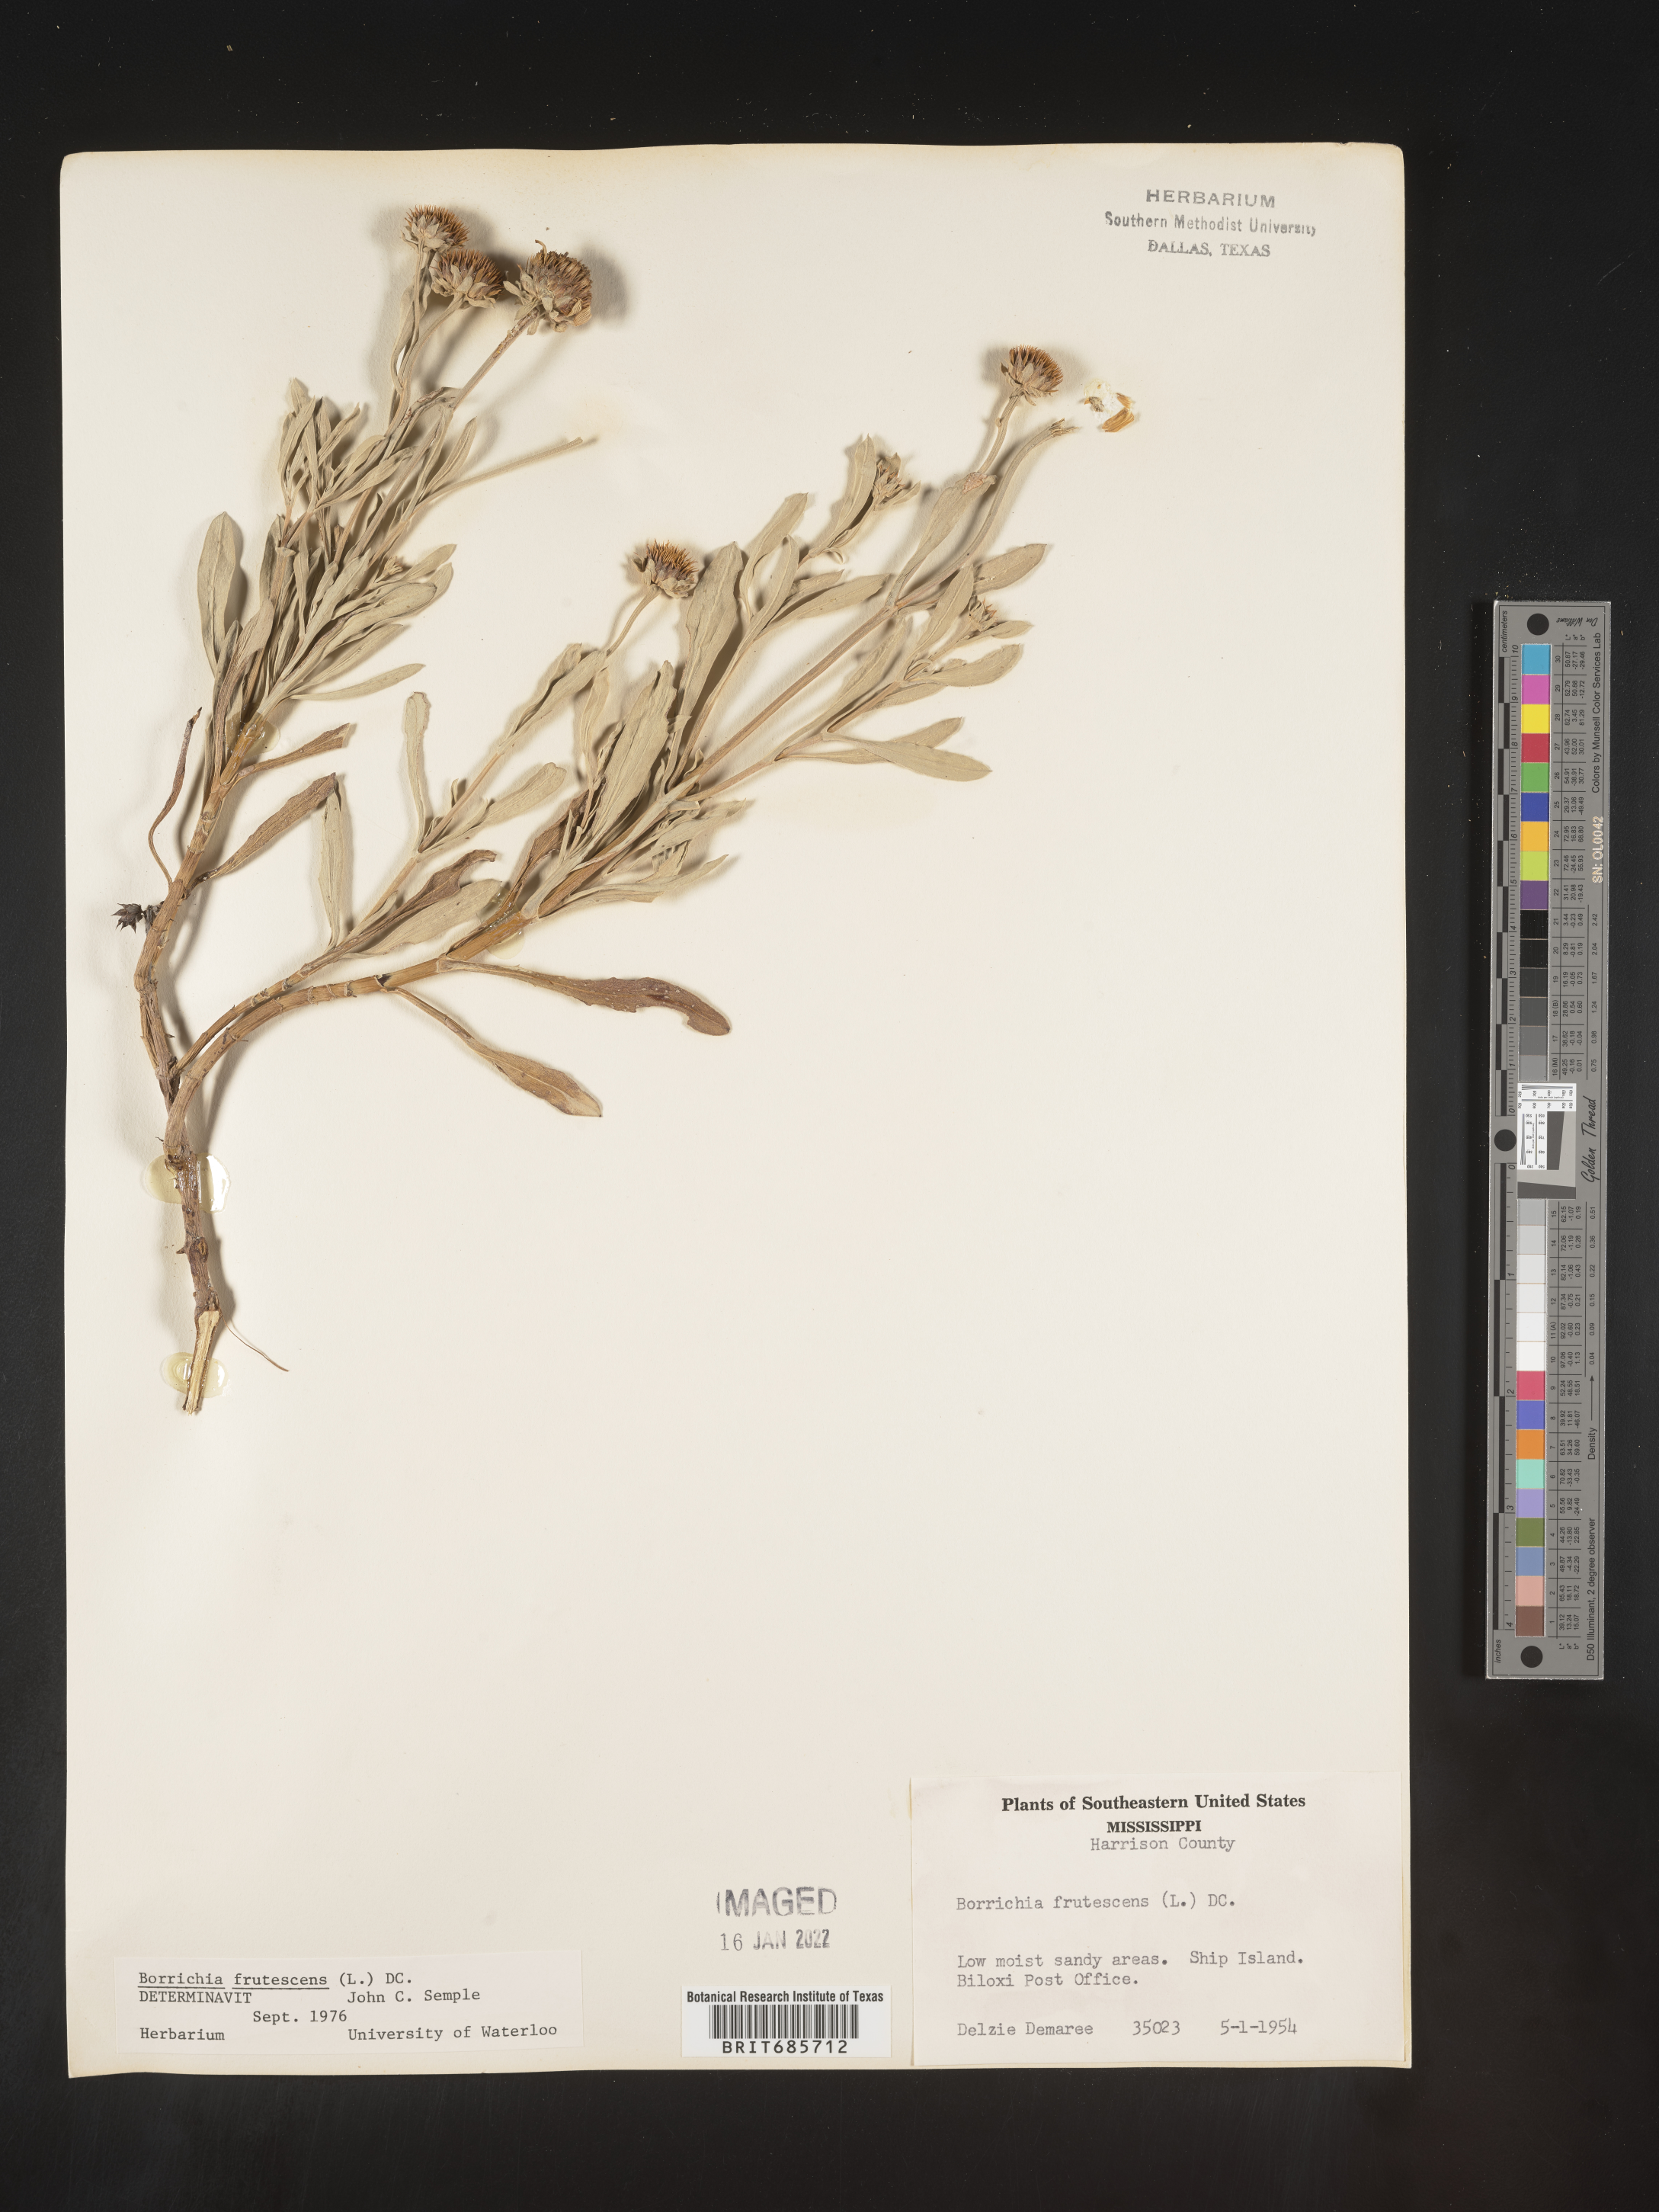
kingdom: Plantae
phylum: Tracheophyta
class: Magnoliopsida
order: Asterales
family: Asteraceae
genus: Borrichia
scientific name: Borrichia frutescens
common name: Sea oxeye
